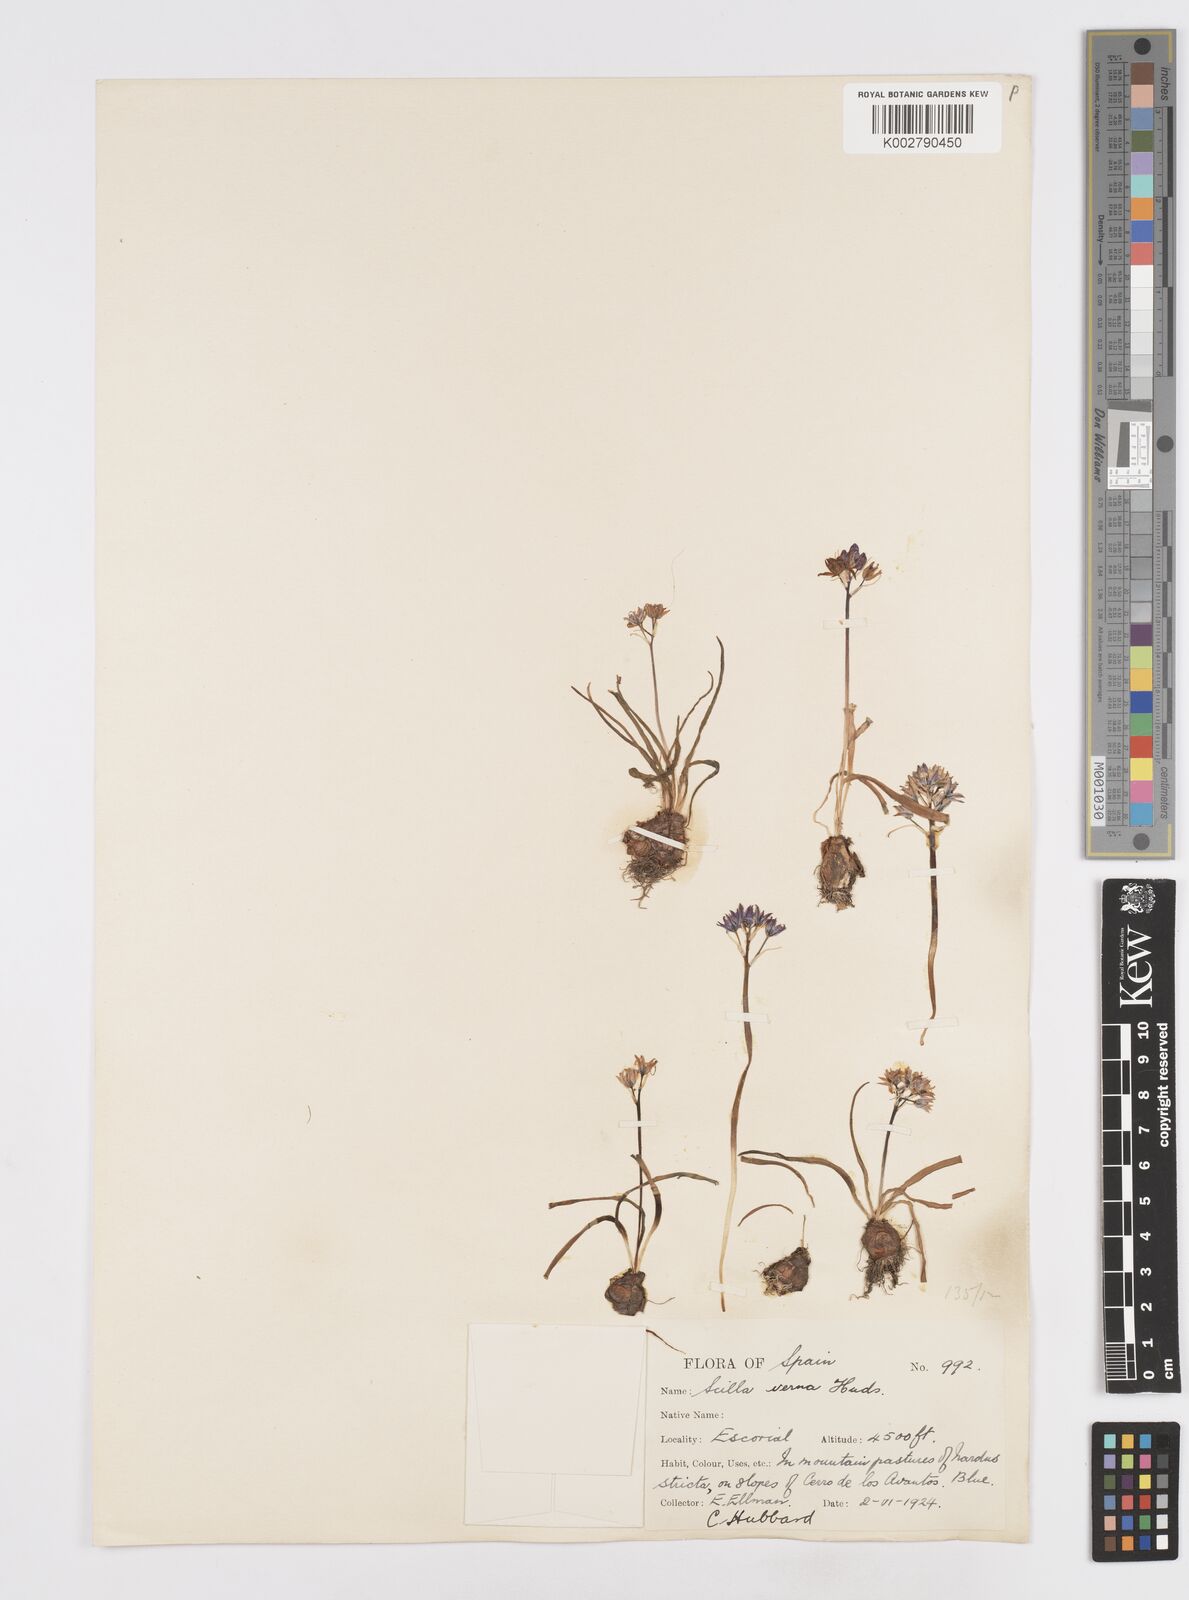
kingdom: Plantae
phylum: Tracheophyta
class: Liliopsida
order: Asparagales
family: Asparagaceae
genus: Scilla
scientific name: Scilla verna
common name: Spring squill
